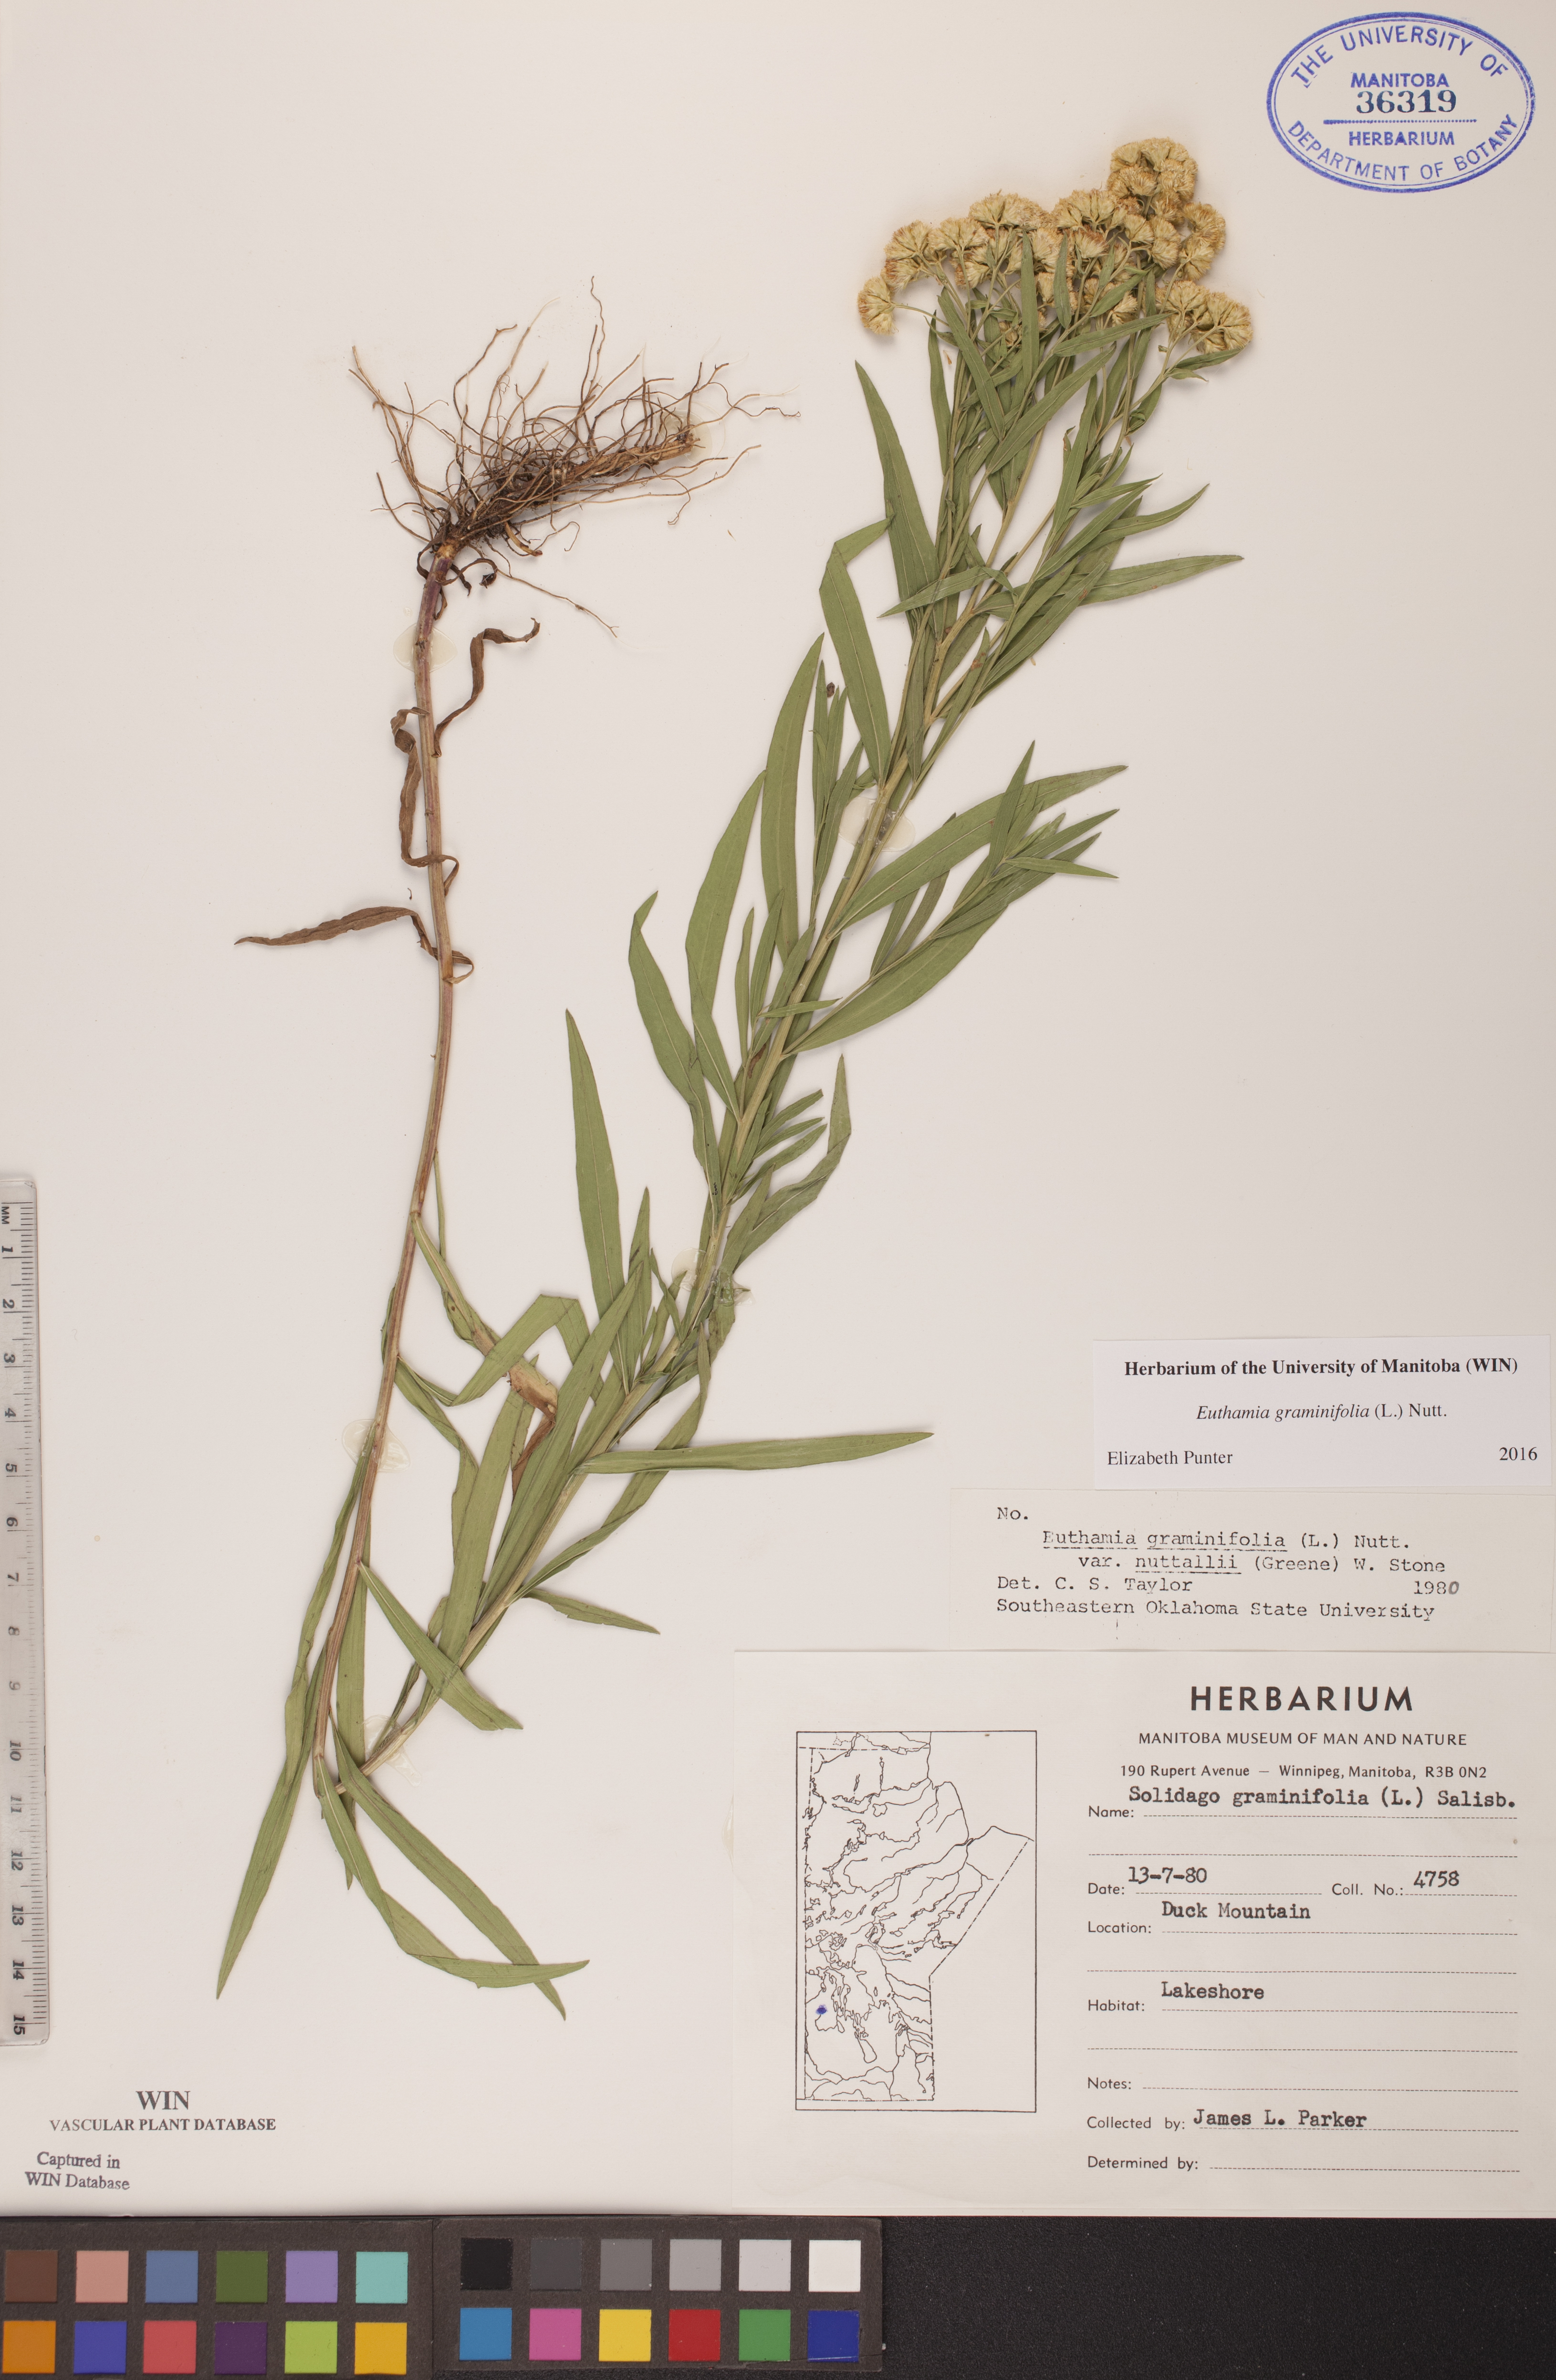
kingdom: Plantae
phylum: Tracheophyta
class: Magnoliopsida
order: Asterales
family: Asteraceae
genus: Euthamia
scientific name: Euthamia graminifolia
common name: Common goldentop
